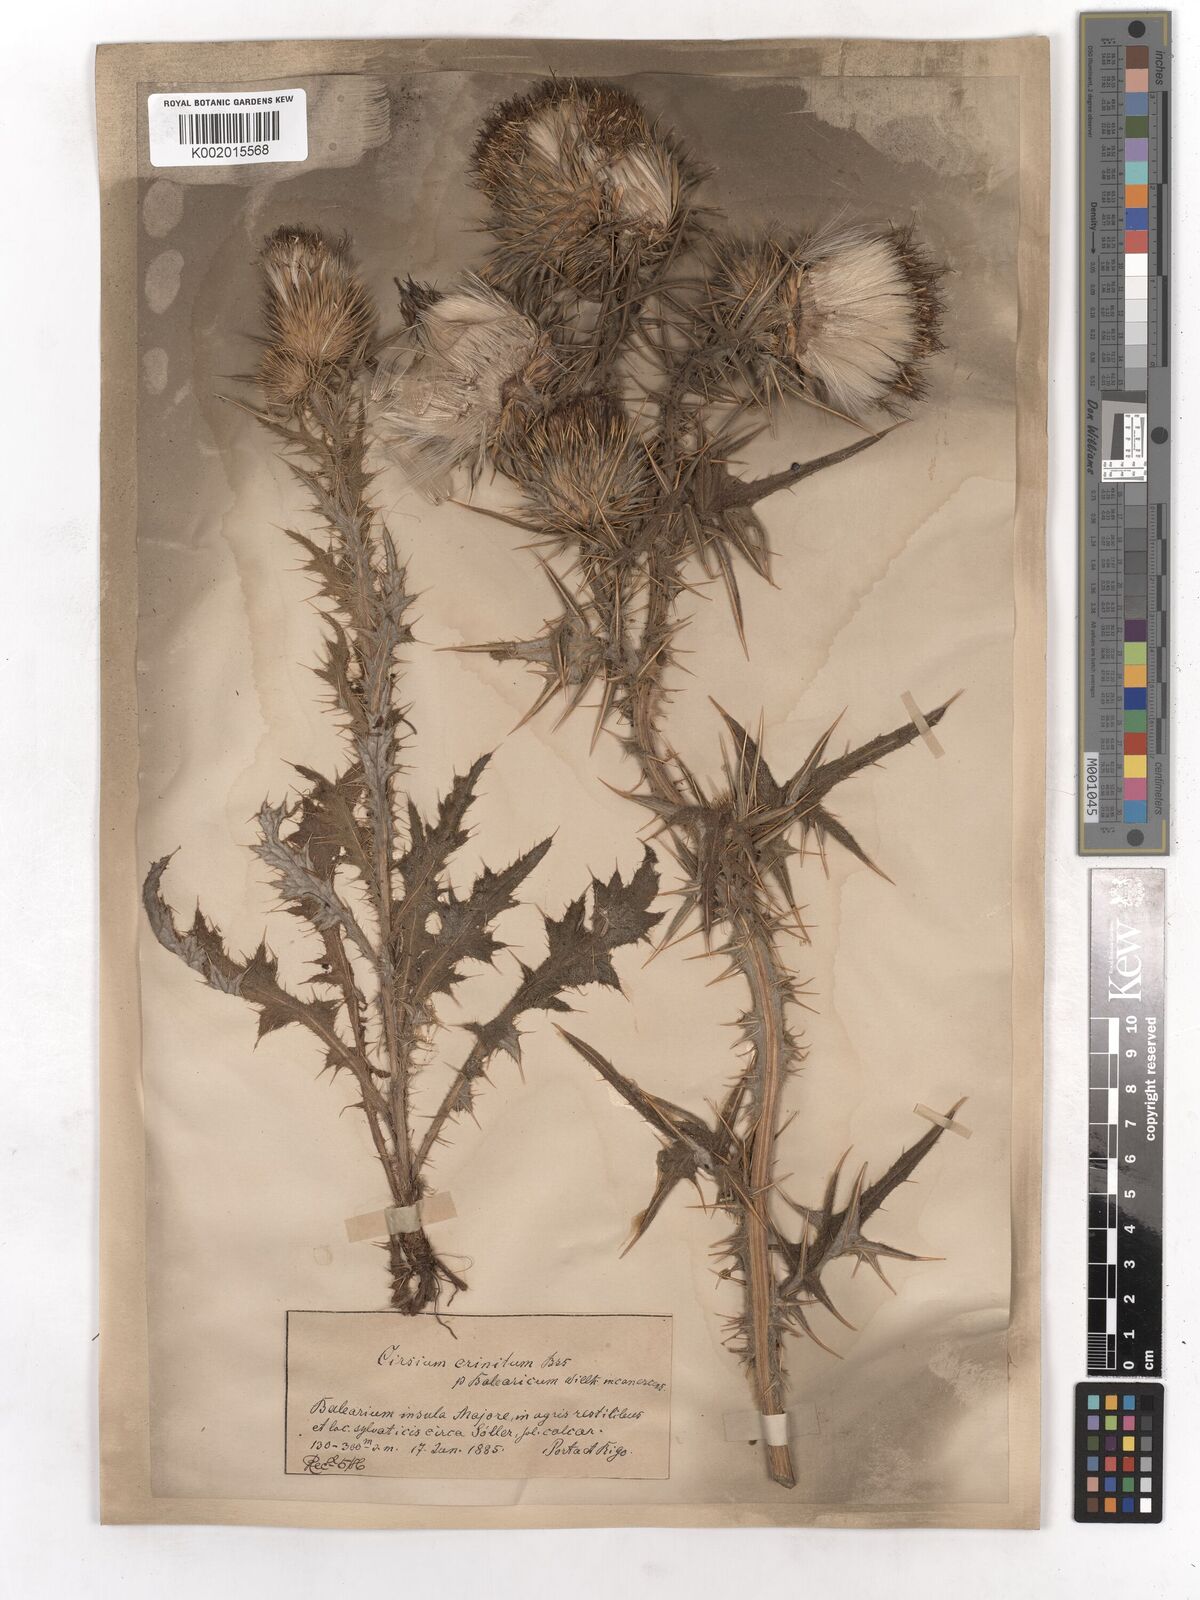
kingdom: Plantae
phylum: Tracheophyta
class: Magnoliopsida
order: Asterales
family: Asteraceae
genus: Cirsium
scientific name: Cirsium vulgare
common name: Bull thistle
